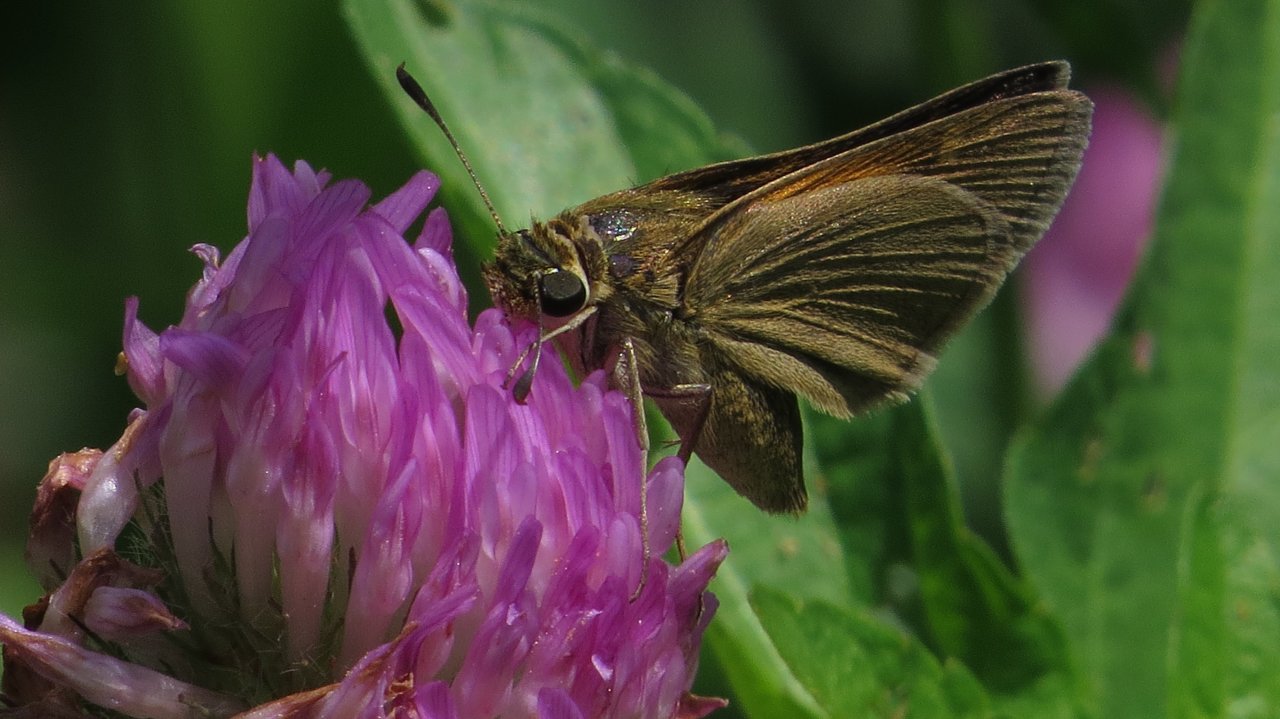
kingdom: Animalia
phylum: Arthropoda
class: Insecta
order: Lepidoptera
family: Hesperiidae
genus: Polites
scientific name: Polites themistocles
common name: Tawny-edged Skipper
